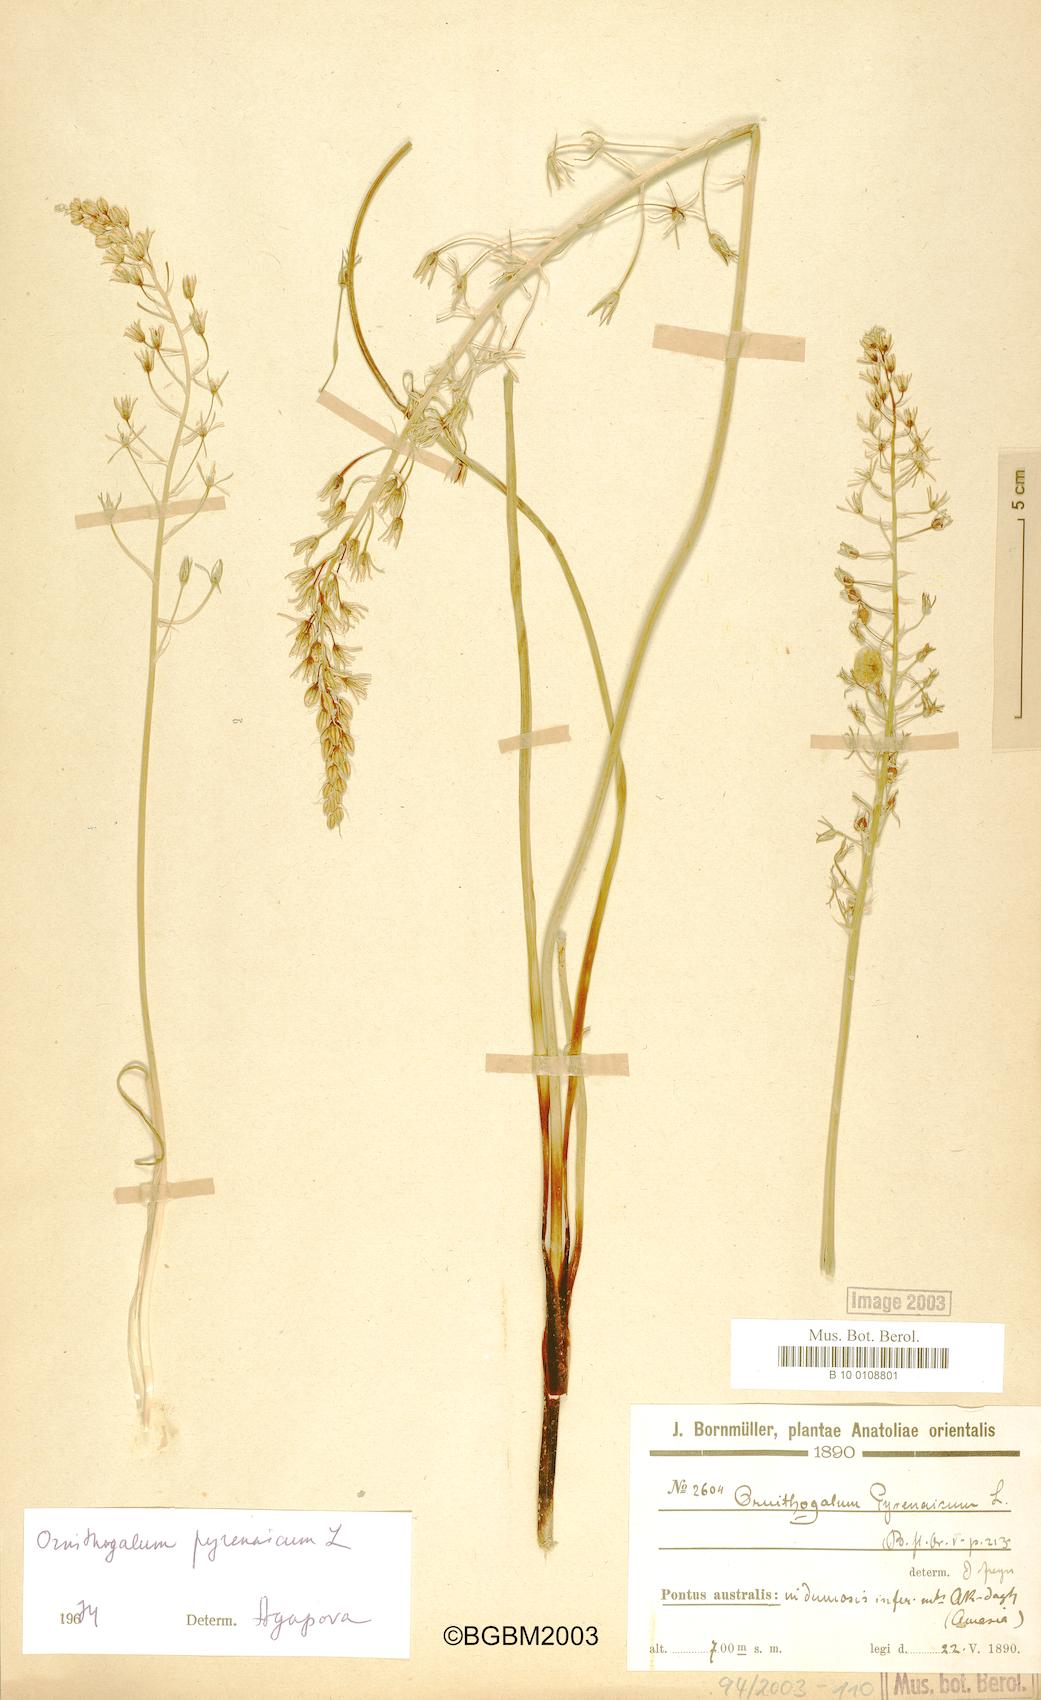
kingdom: Plantae
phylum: Tracheophyta
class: Liliopsida
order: Asparagales
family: Asparagaceae
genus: Ornithogalum
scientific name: Ornithogalum pyrenaicum
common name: Spiked star-of-bethlehem
